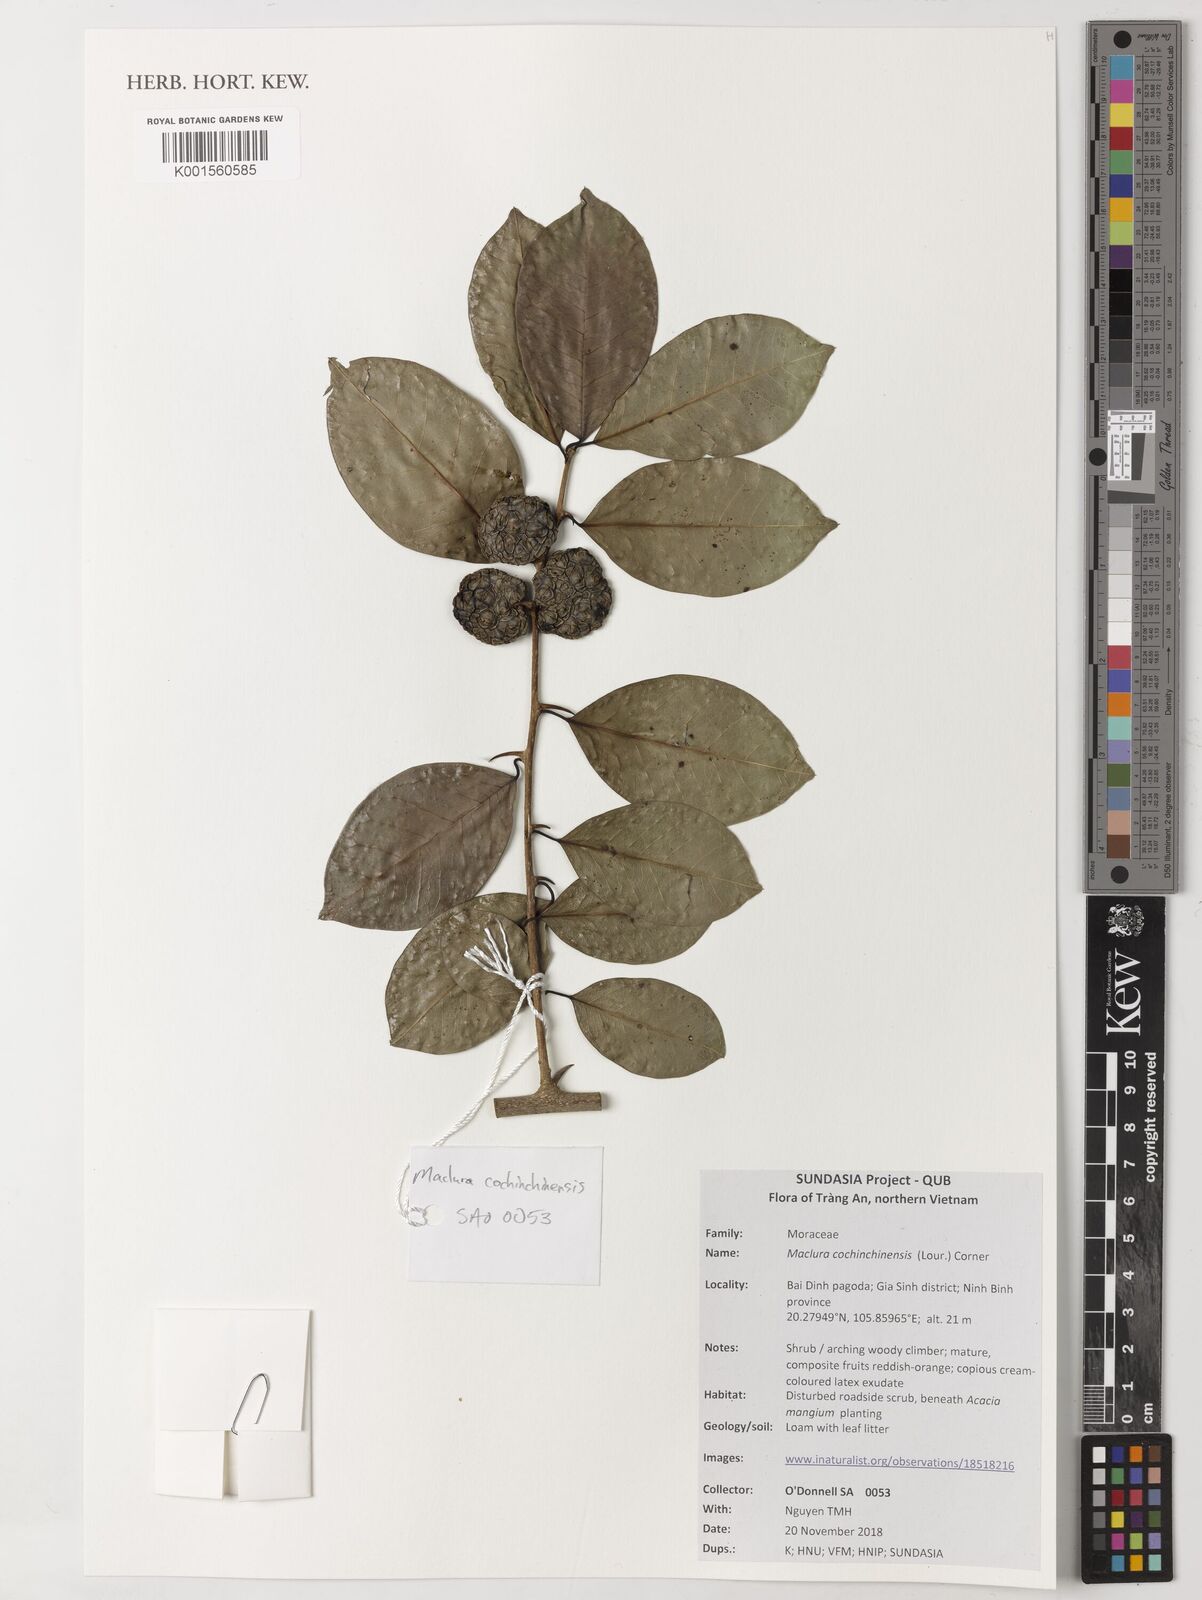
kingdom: Plantae
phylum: Tracheophyta
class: Magnoliopsida
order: Rosales
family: Moraceae
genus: Maclura
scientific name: Maclura cochinchinensis
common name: Cockspurthorn
